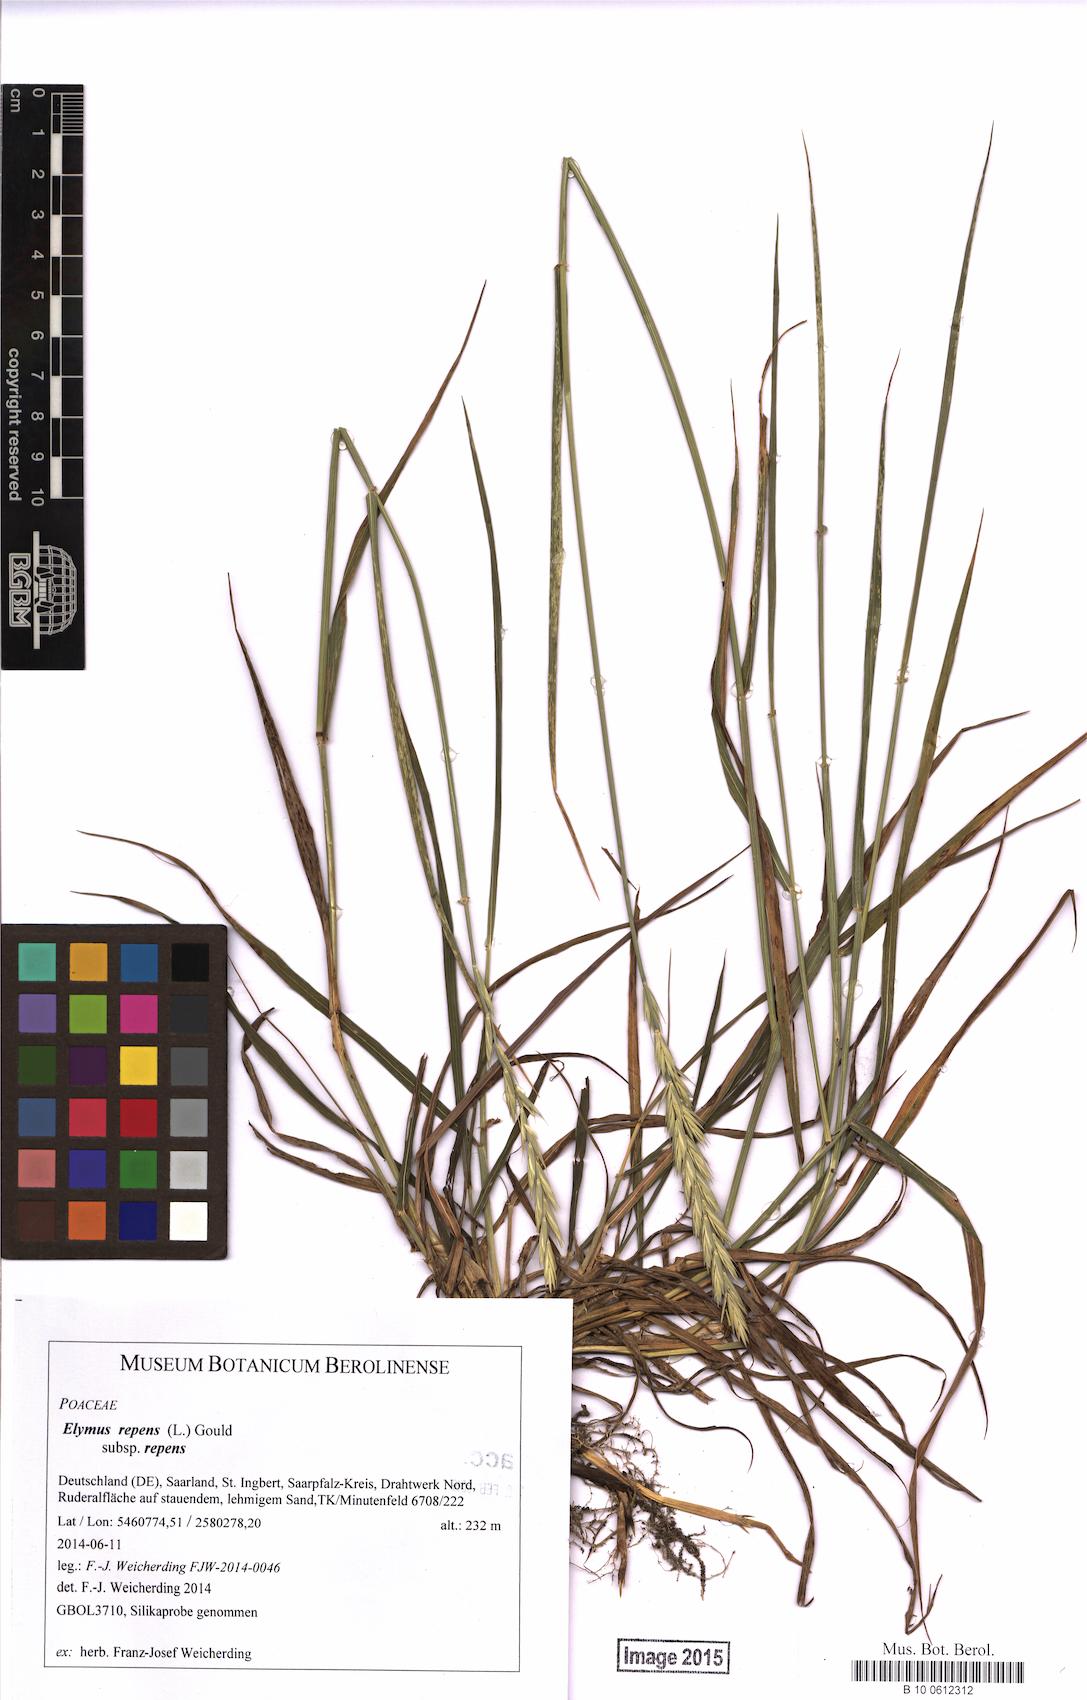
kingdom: Plantae
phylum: Tracheophyta
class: Liliopsida
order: Poales
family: Poaceae
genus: Elymus
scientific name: Elymus repens
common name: Quackgrass
